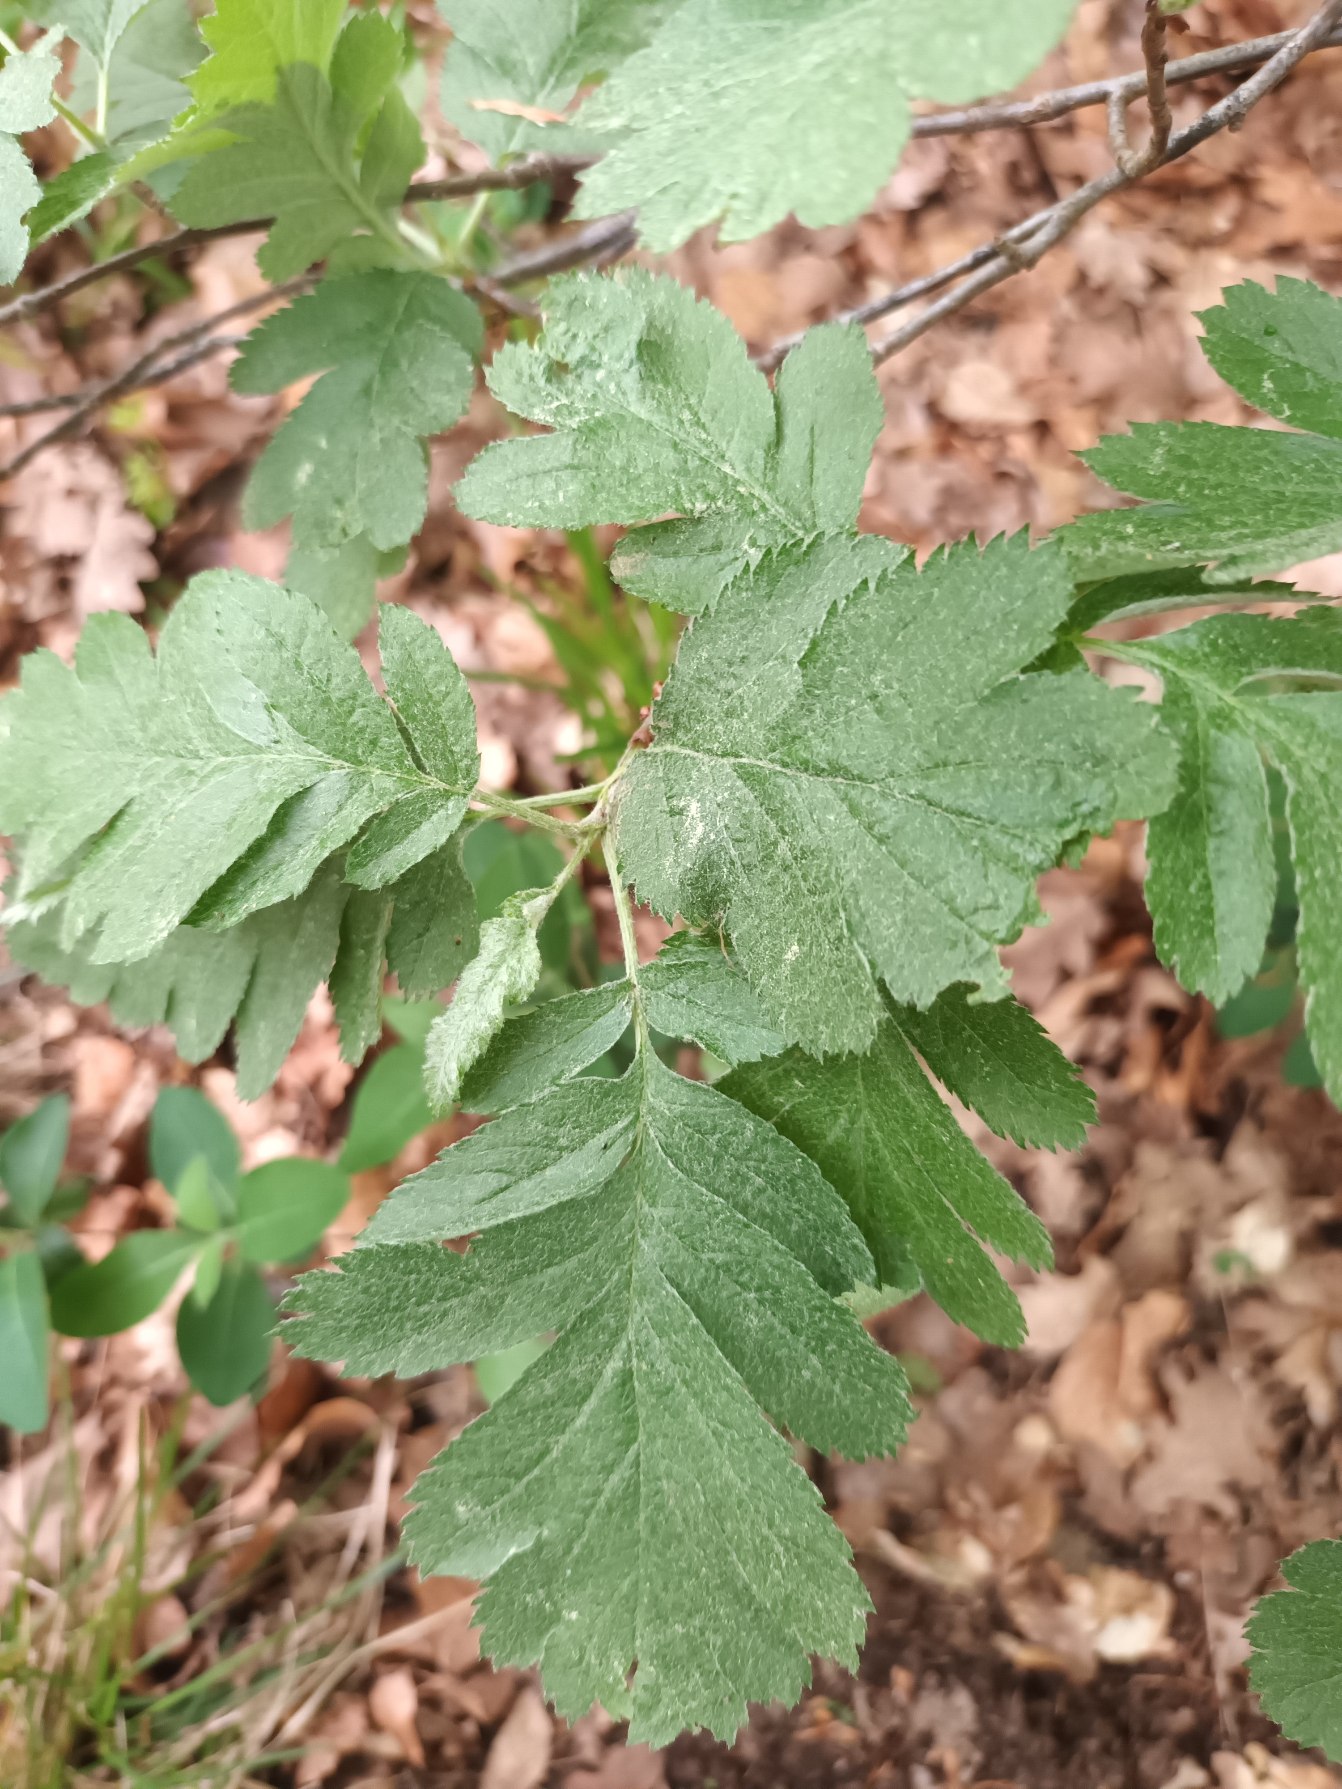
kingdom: Plantae
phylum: Tracheophyta
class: Magnoliopsida
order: Rosales
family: Rosaceae
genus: Hedlundia
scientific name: Hedlundia hybrida
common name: Finsk røn
